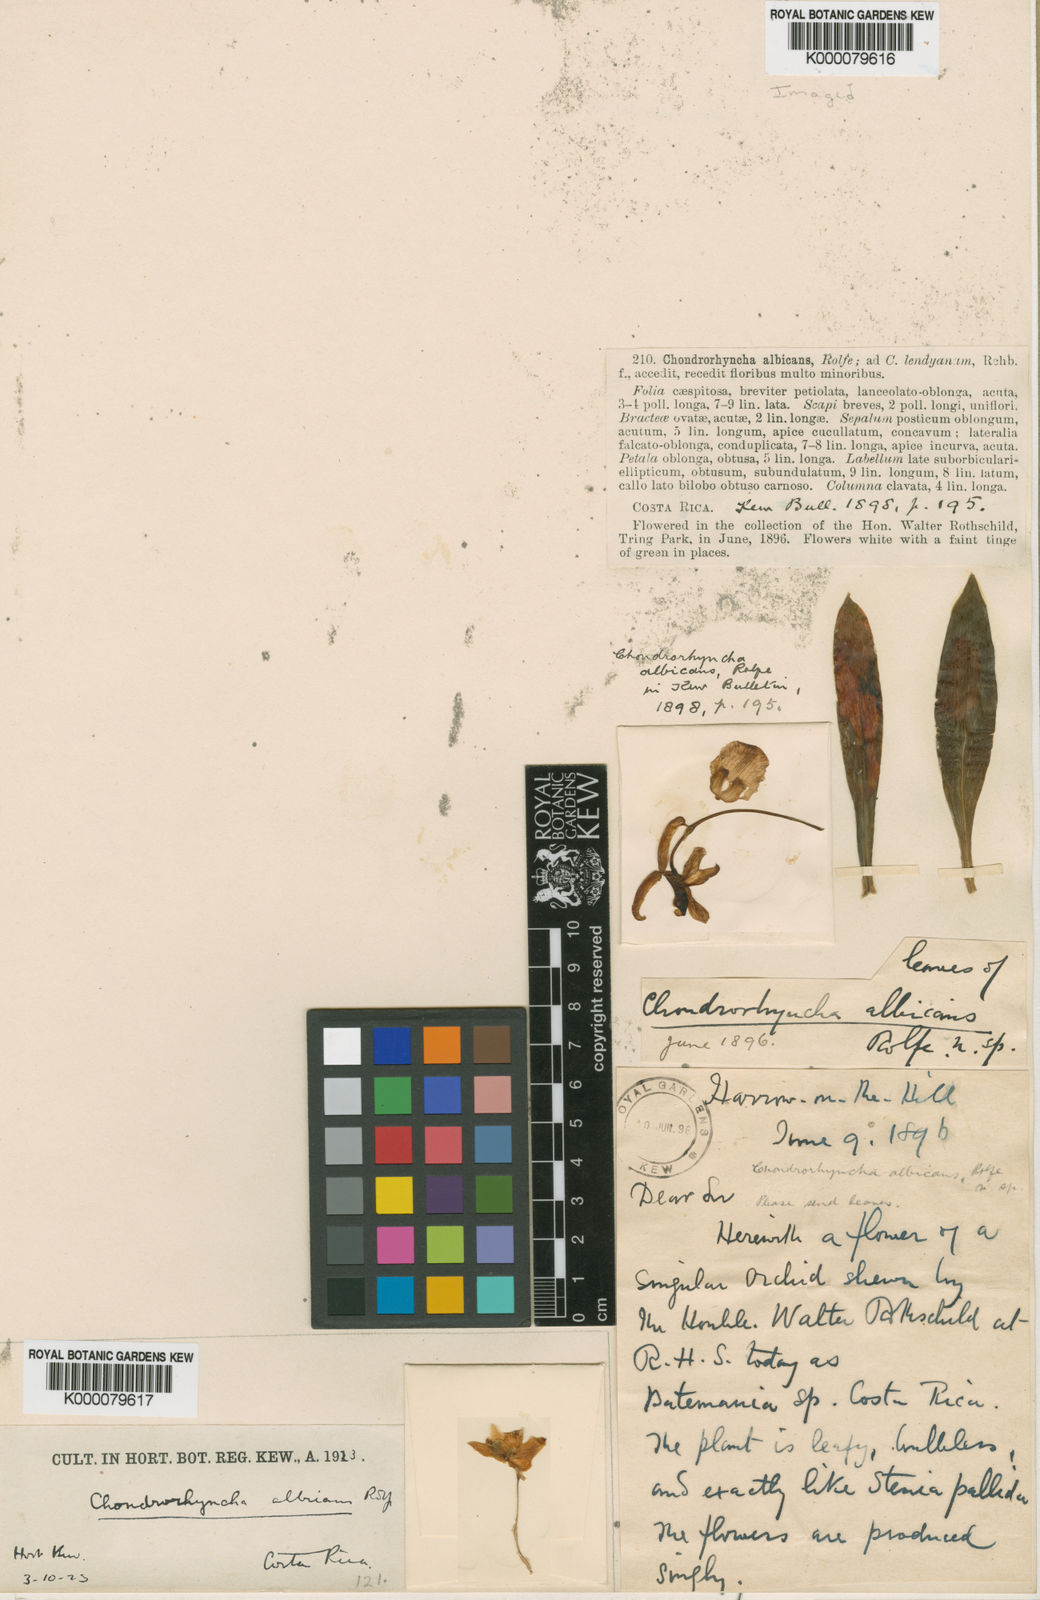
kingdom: Plantae
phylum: Tracheophyta
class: Liliopsida
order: Asparagales
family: Orchidaceae
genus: Daiotyla
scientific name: Daiotyla albicans
